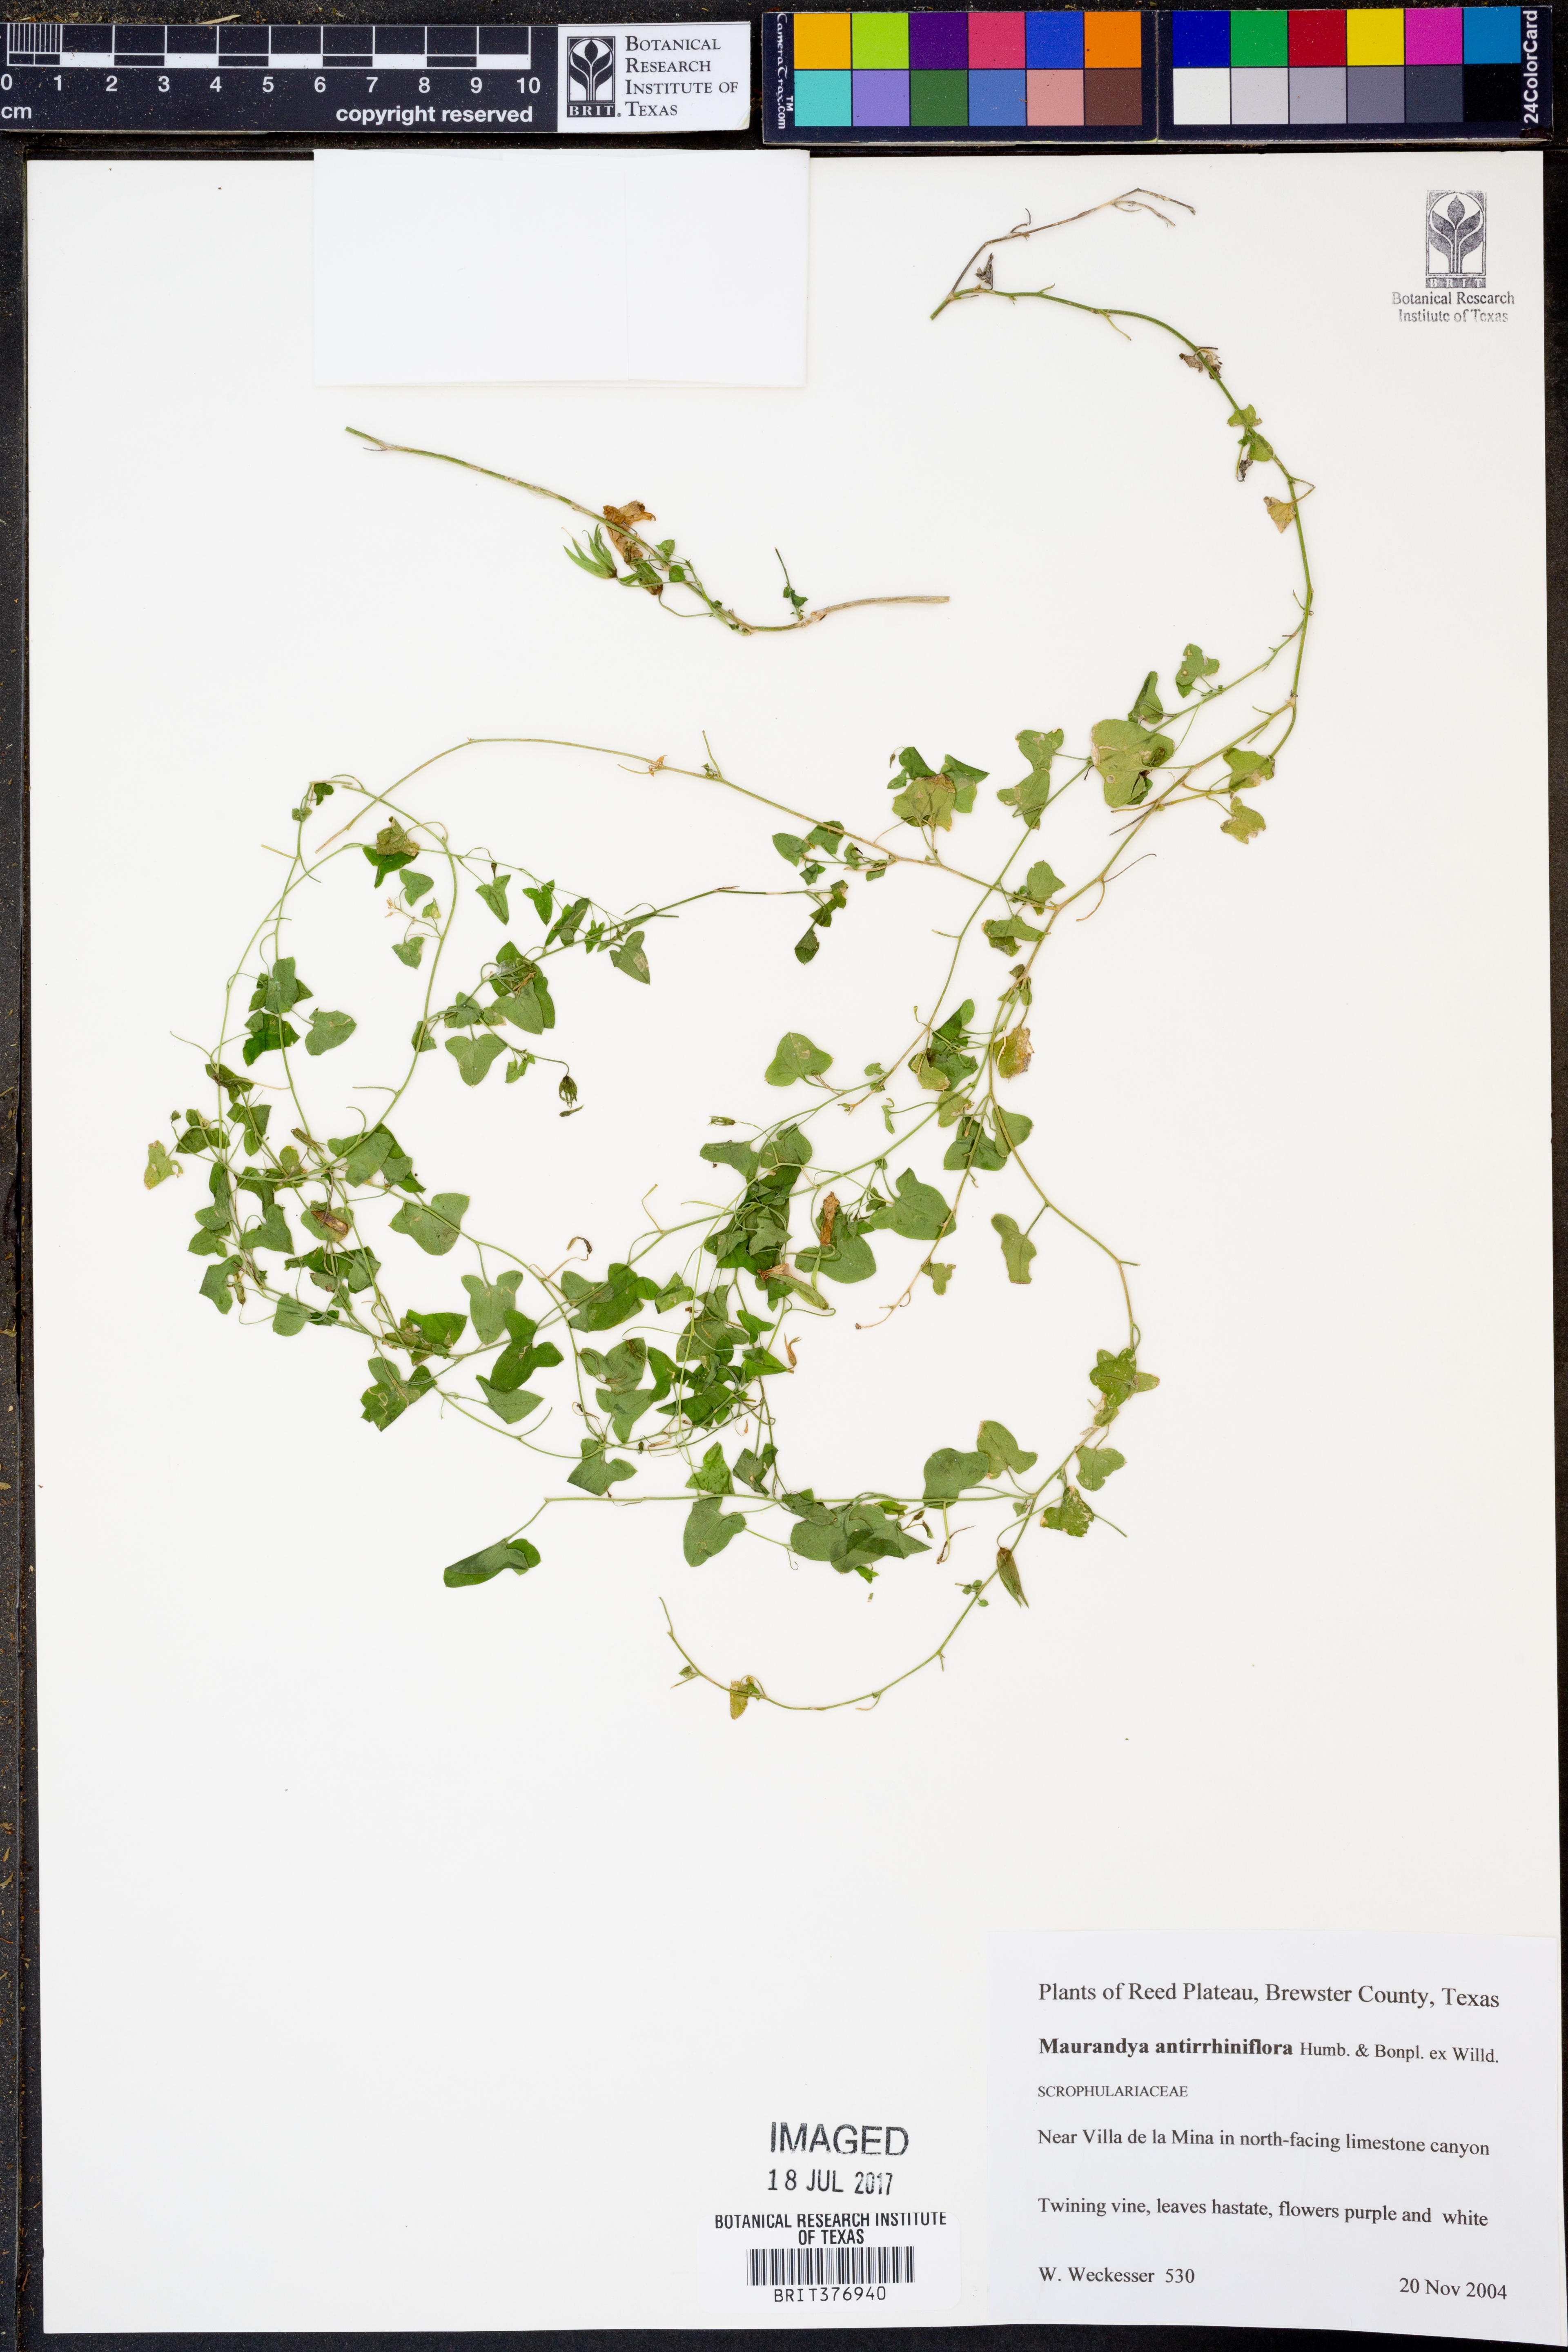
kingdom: Plantae
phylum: Tracheophyta
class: Magnoliopsida
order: Lamiales
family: Plantaginaceae
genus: Maurandella
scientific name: Maurandella antirrhiniflora
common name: Violet twining-snapdragon
